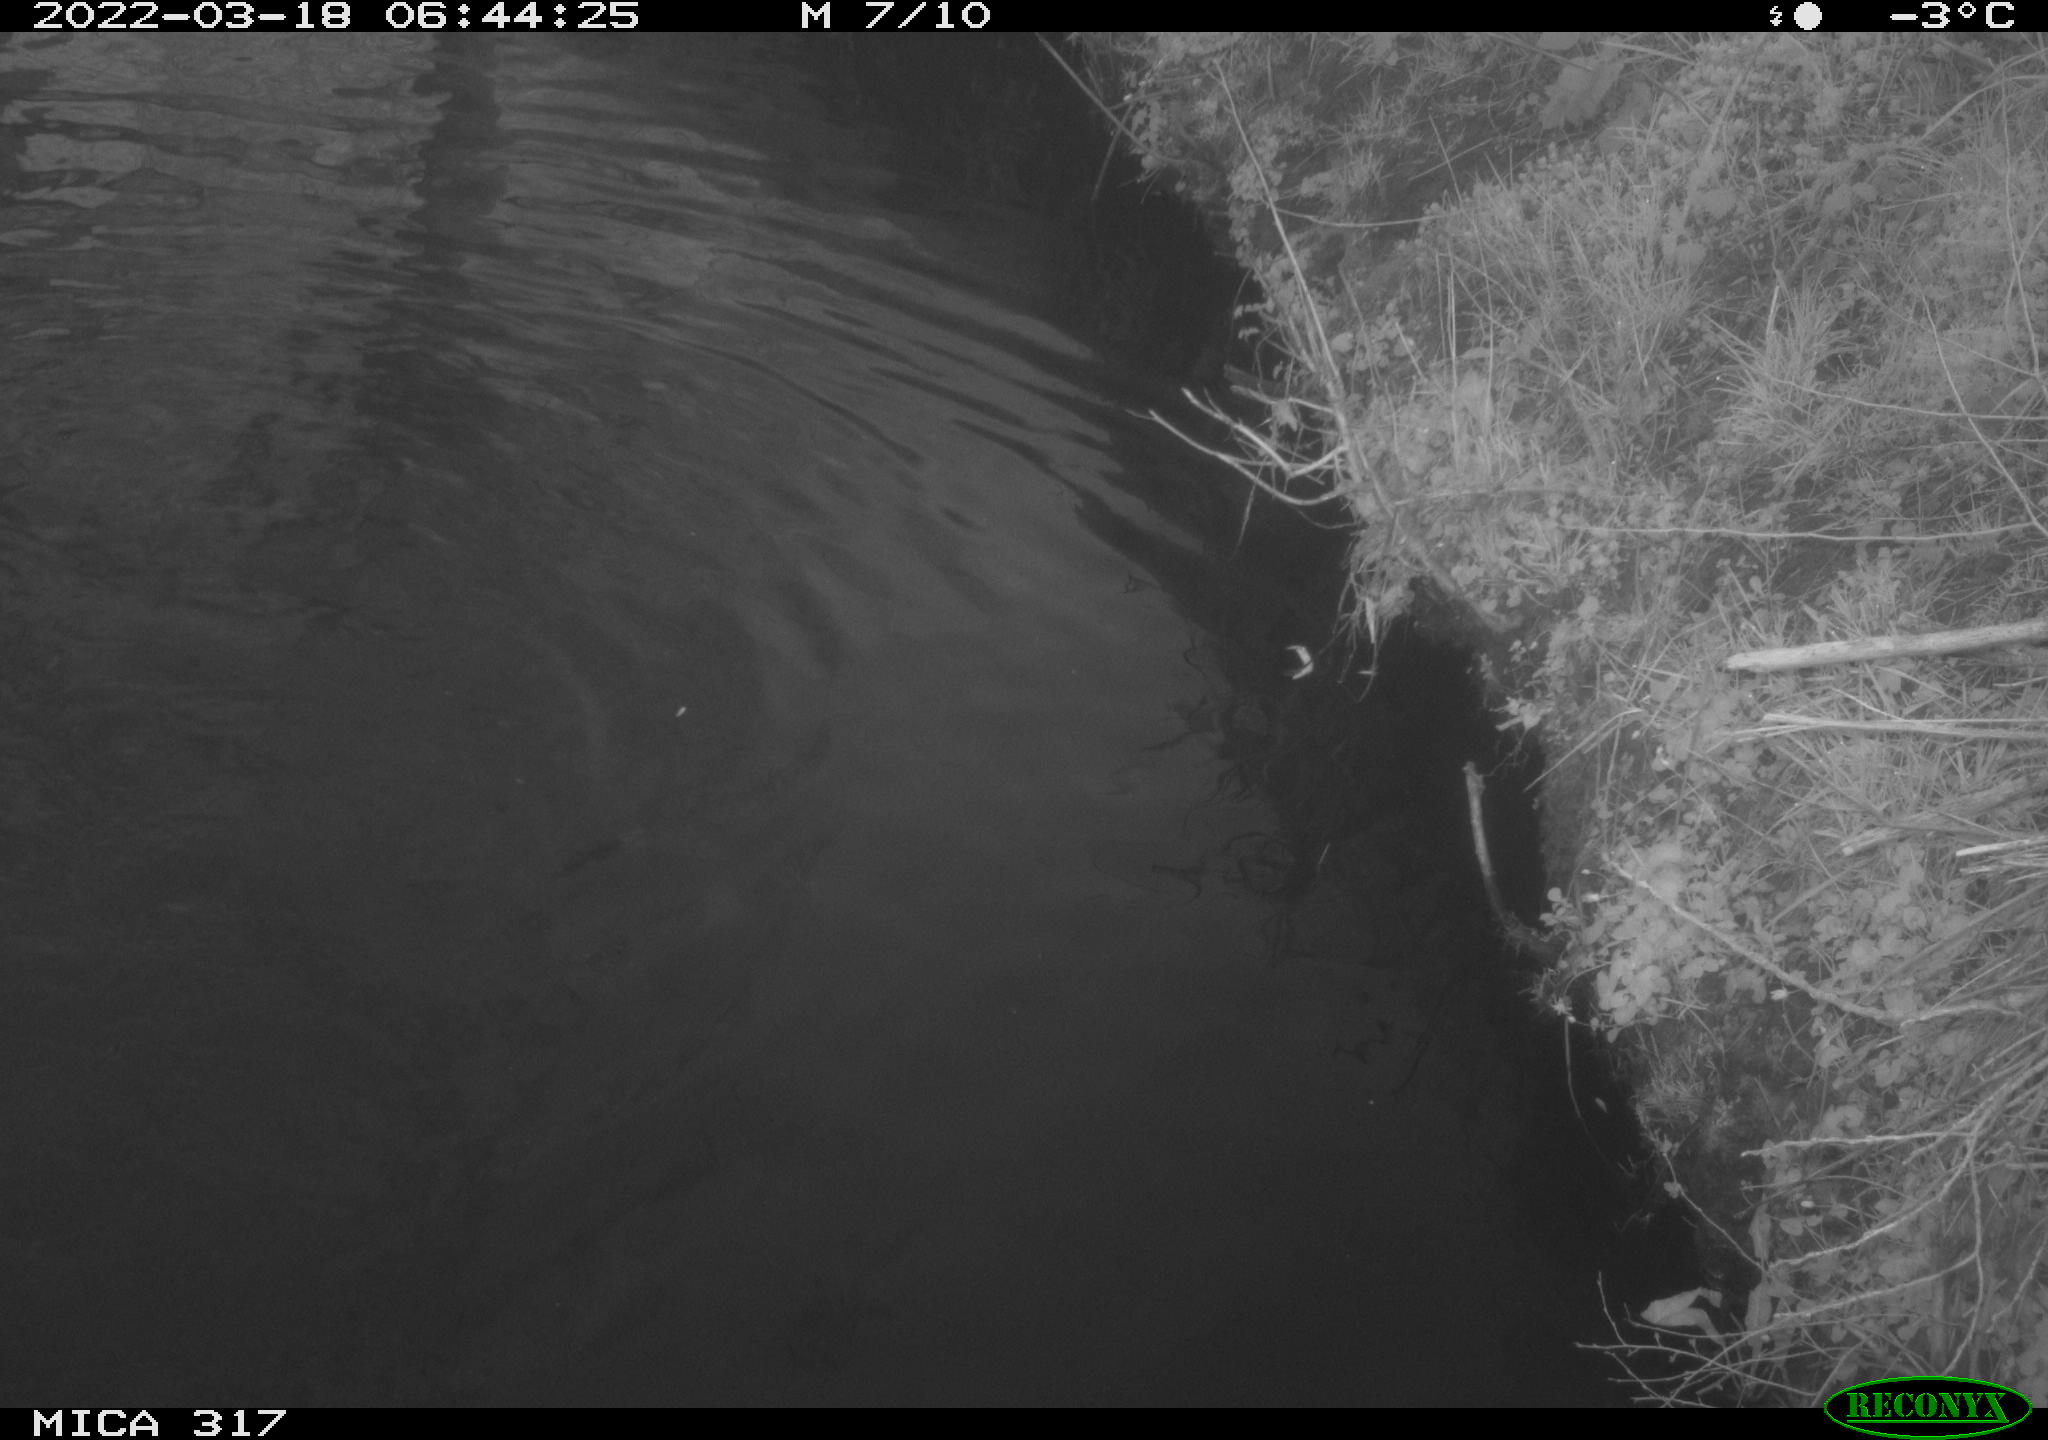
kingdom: Animalia
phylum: Chordata
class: Aves
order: Anseriformes
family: Anatidae
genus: Anas
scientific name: Anas platyrhynchos
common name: Mallard
